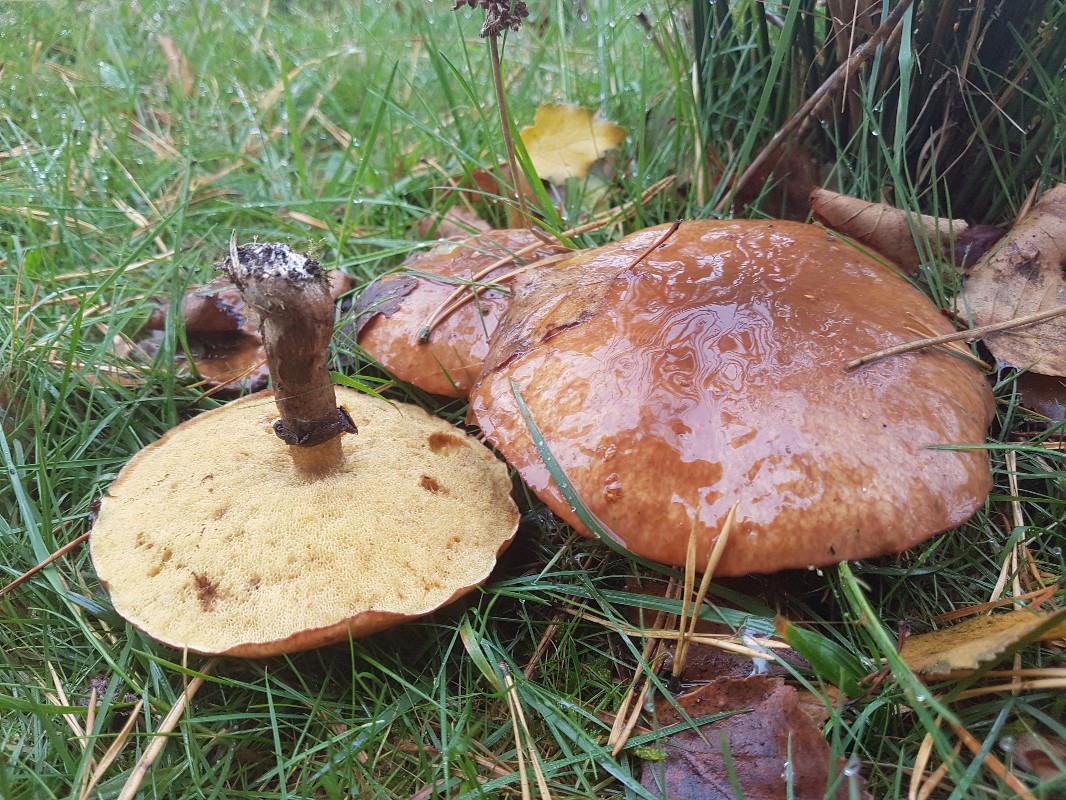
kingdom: Fungi
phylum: Basidiomycota
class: Agaricomycetes
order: Boletales
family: Suillaceae
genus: Suillus
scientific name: Suillus luteus
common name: brungul slimrørhat
